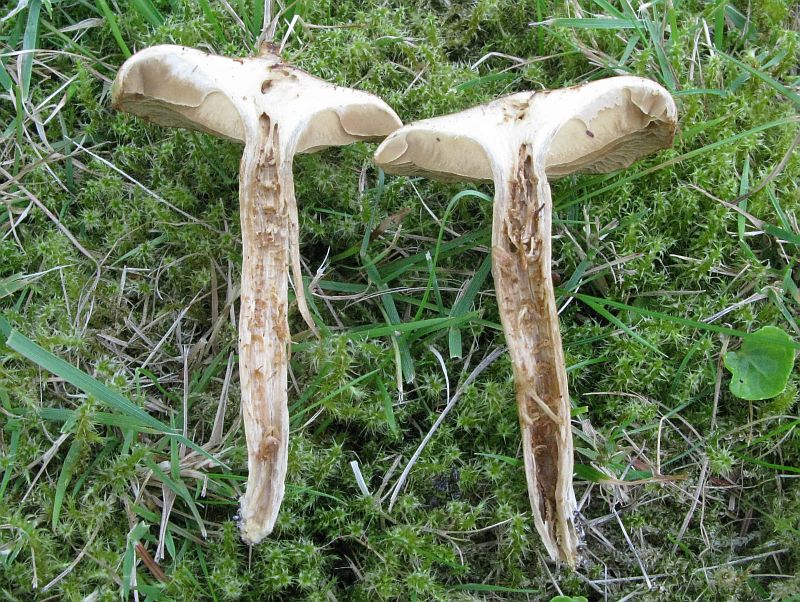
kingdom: Fungi
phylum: Basidiomycota
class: Agaricomycetes
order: Agaricales
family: Inocybaceae
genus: Mallocybe
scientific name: Mallocybe agardhii
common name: Agardhs trævlhat
